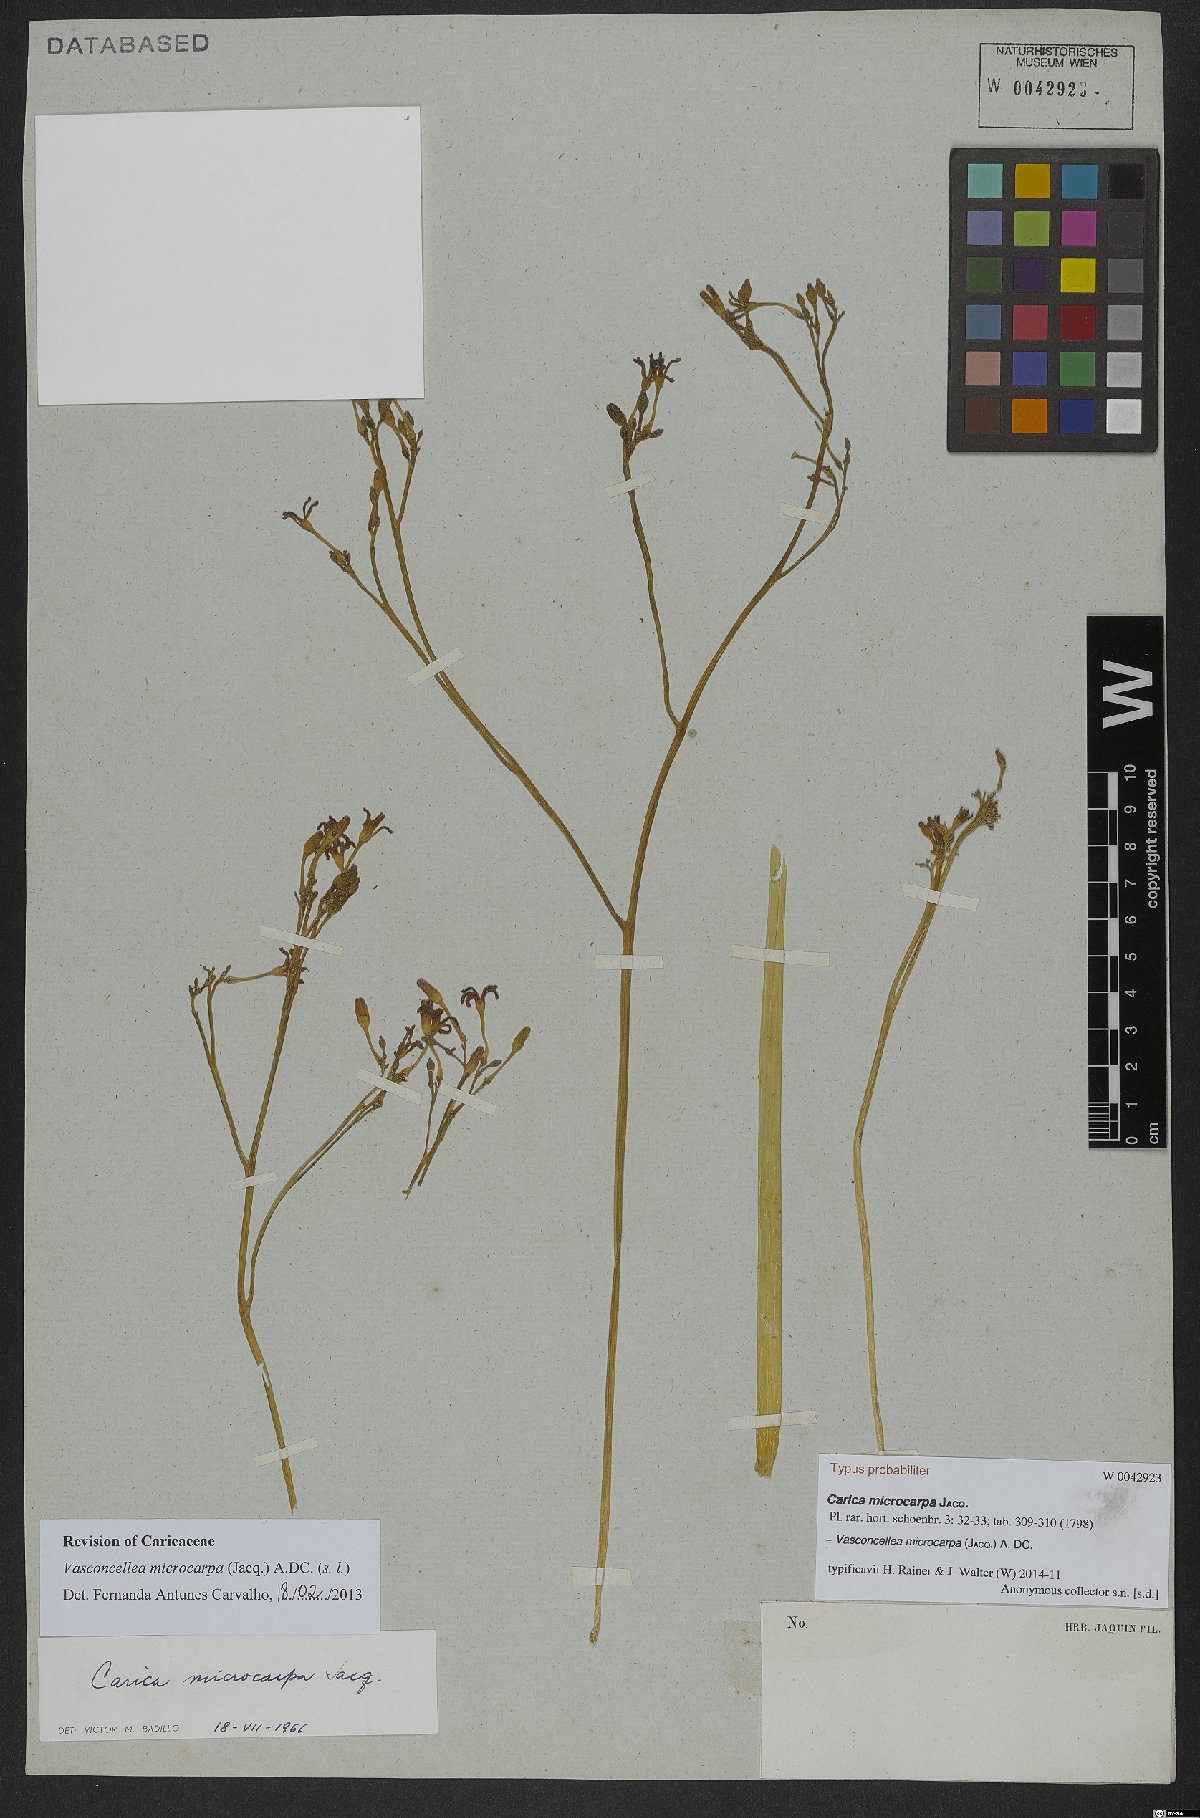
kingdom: Plantae
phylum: Tracheophyta
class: Magnoliopsida
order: Brassicales
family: Caricaceae
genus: Vasconcellea
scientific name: Vasconcellea microcarpa
